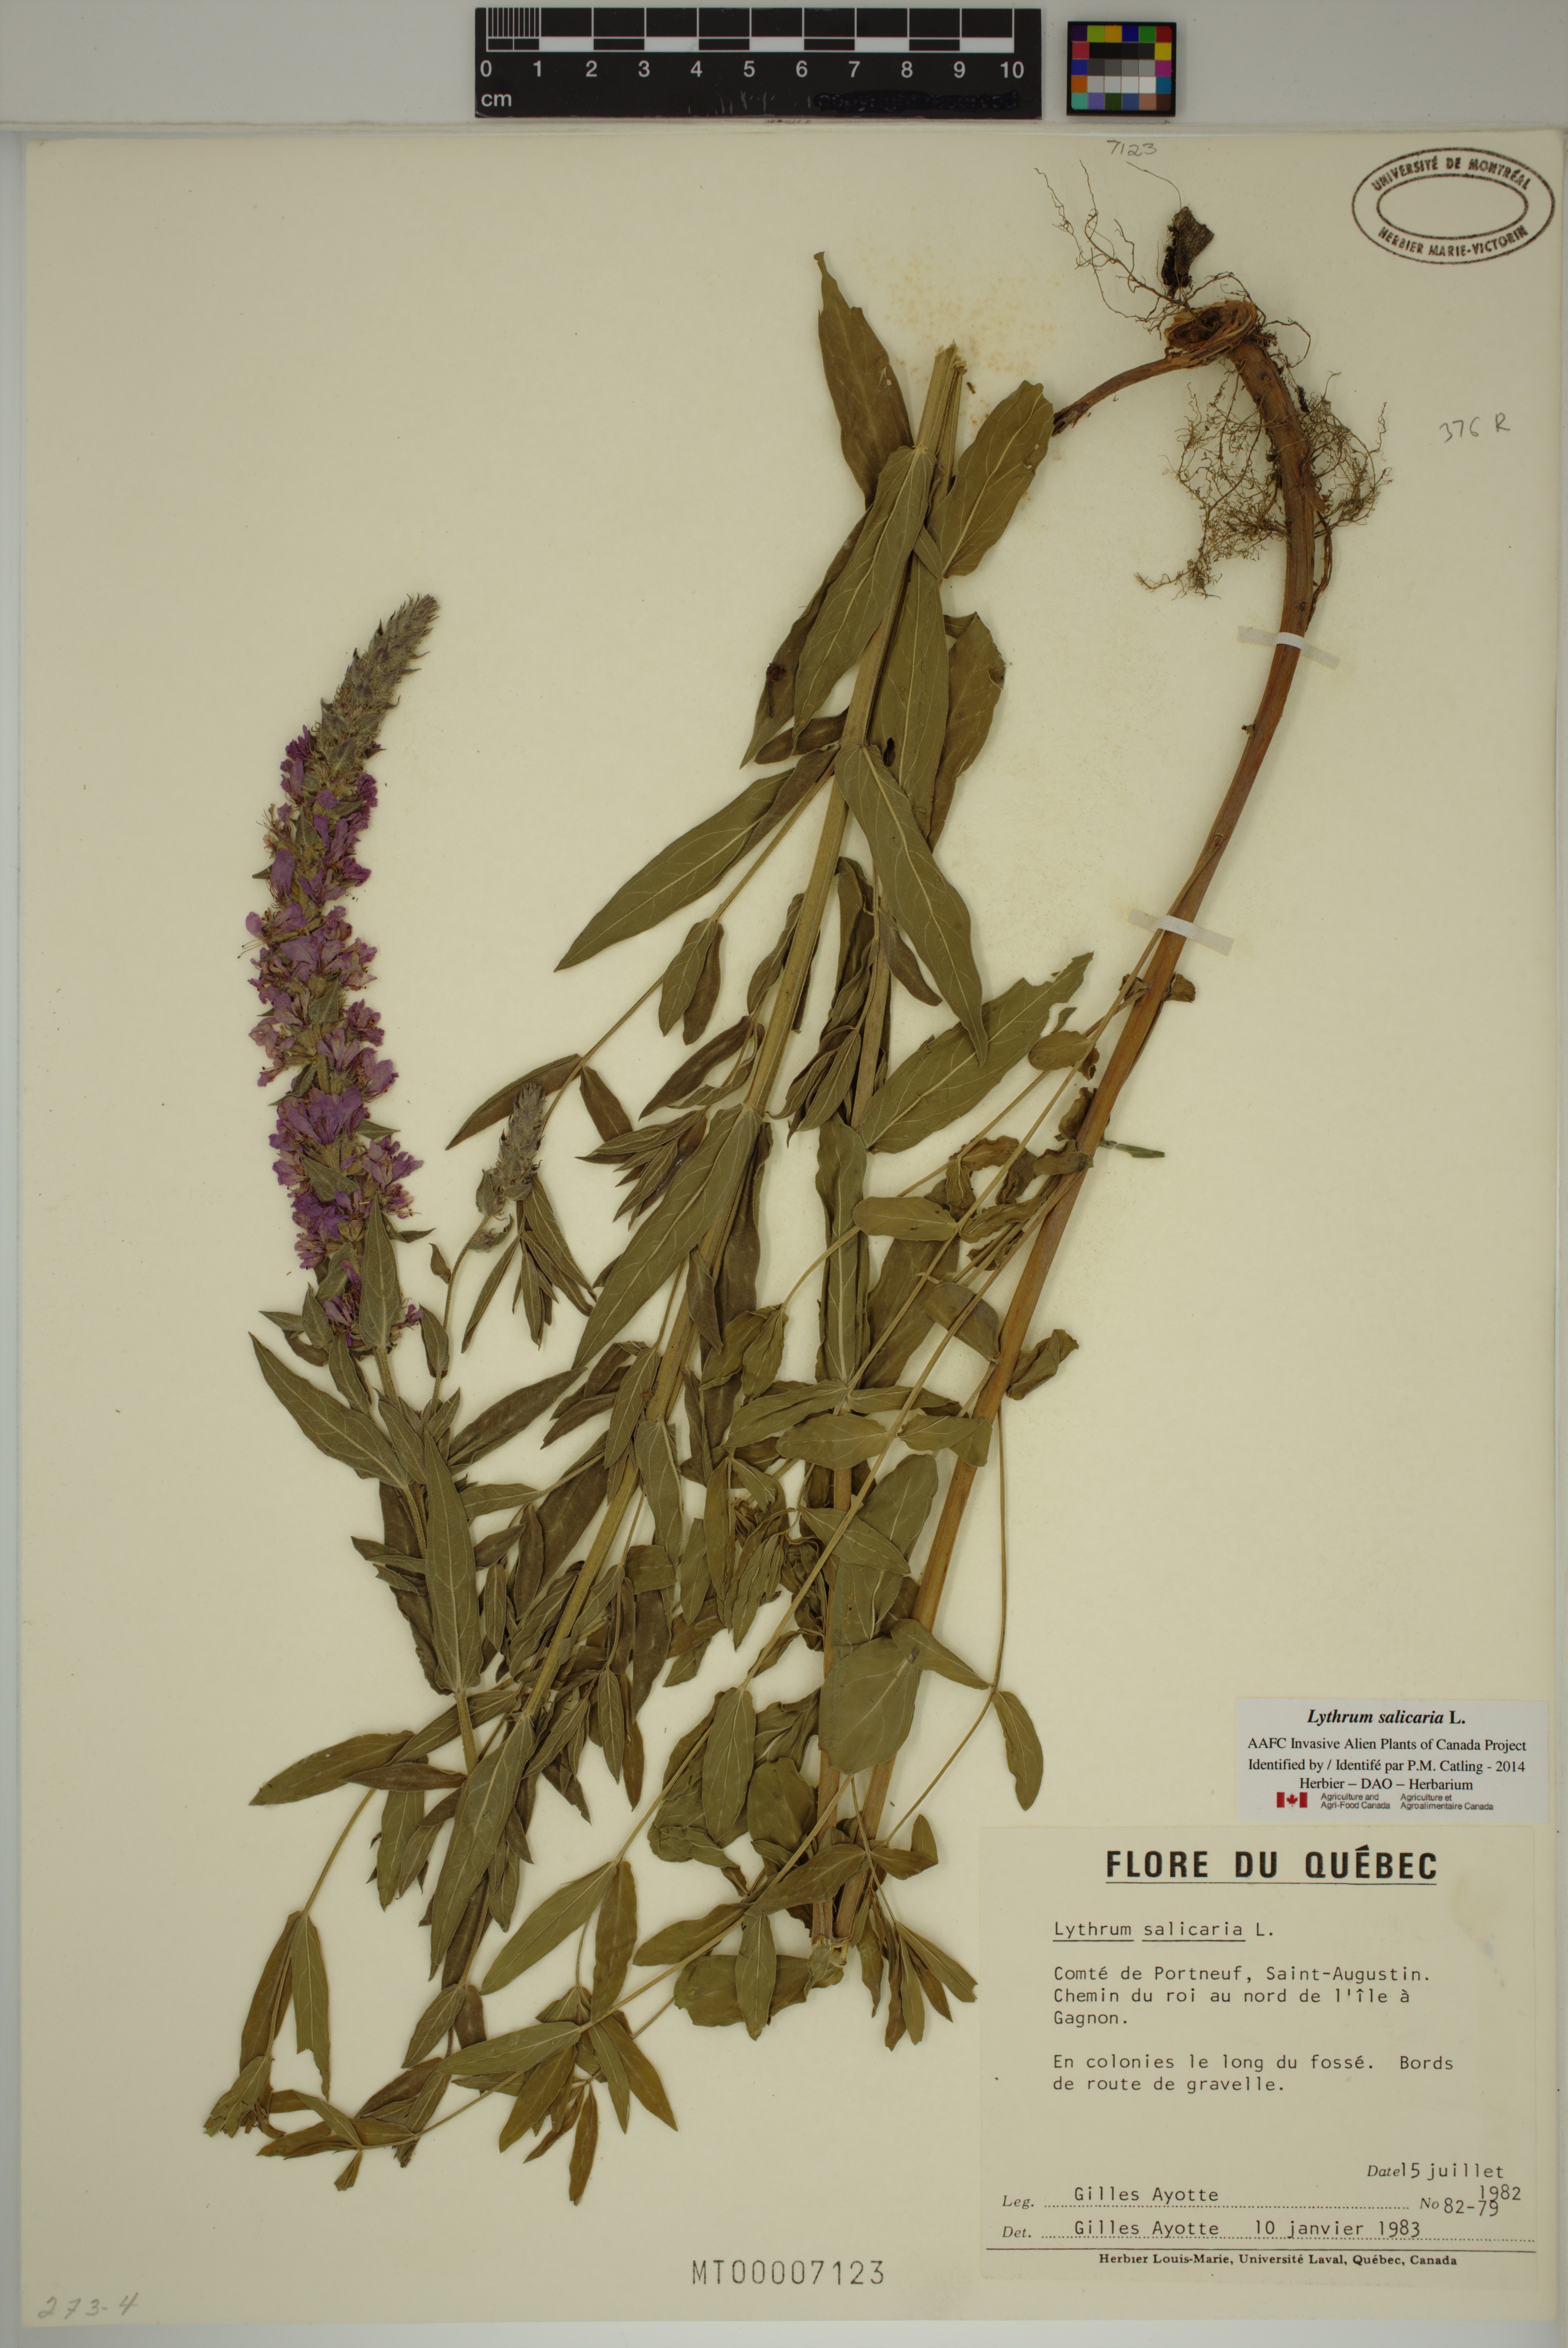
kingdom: Plantae
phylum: Tracheophyta
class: Magnoliopsida
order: Myrtales
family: Lythraceae
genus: Lythrum
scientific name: Lythrum salicaria
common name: Purple loosestrife
